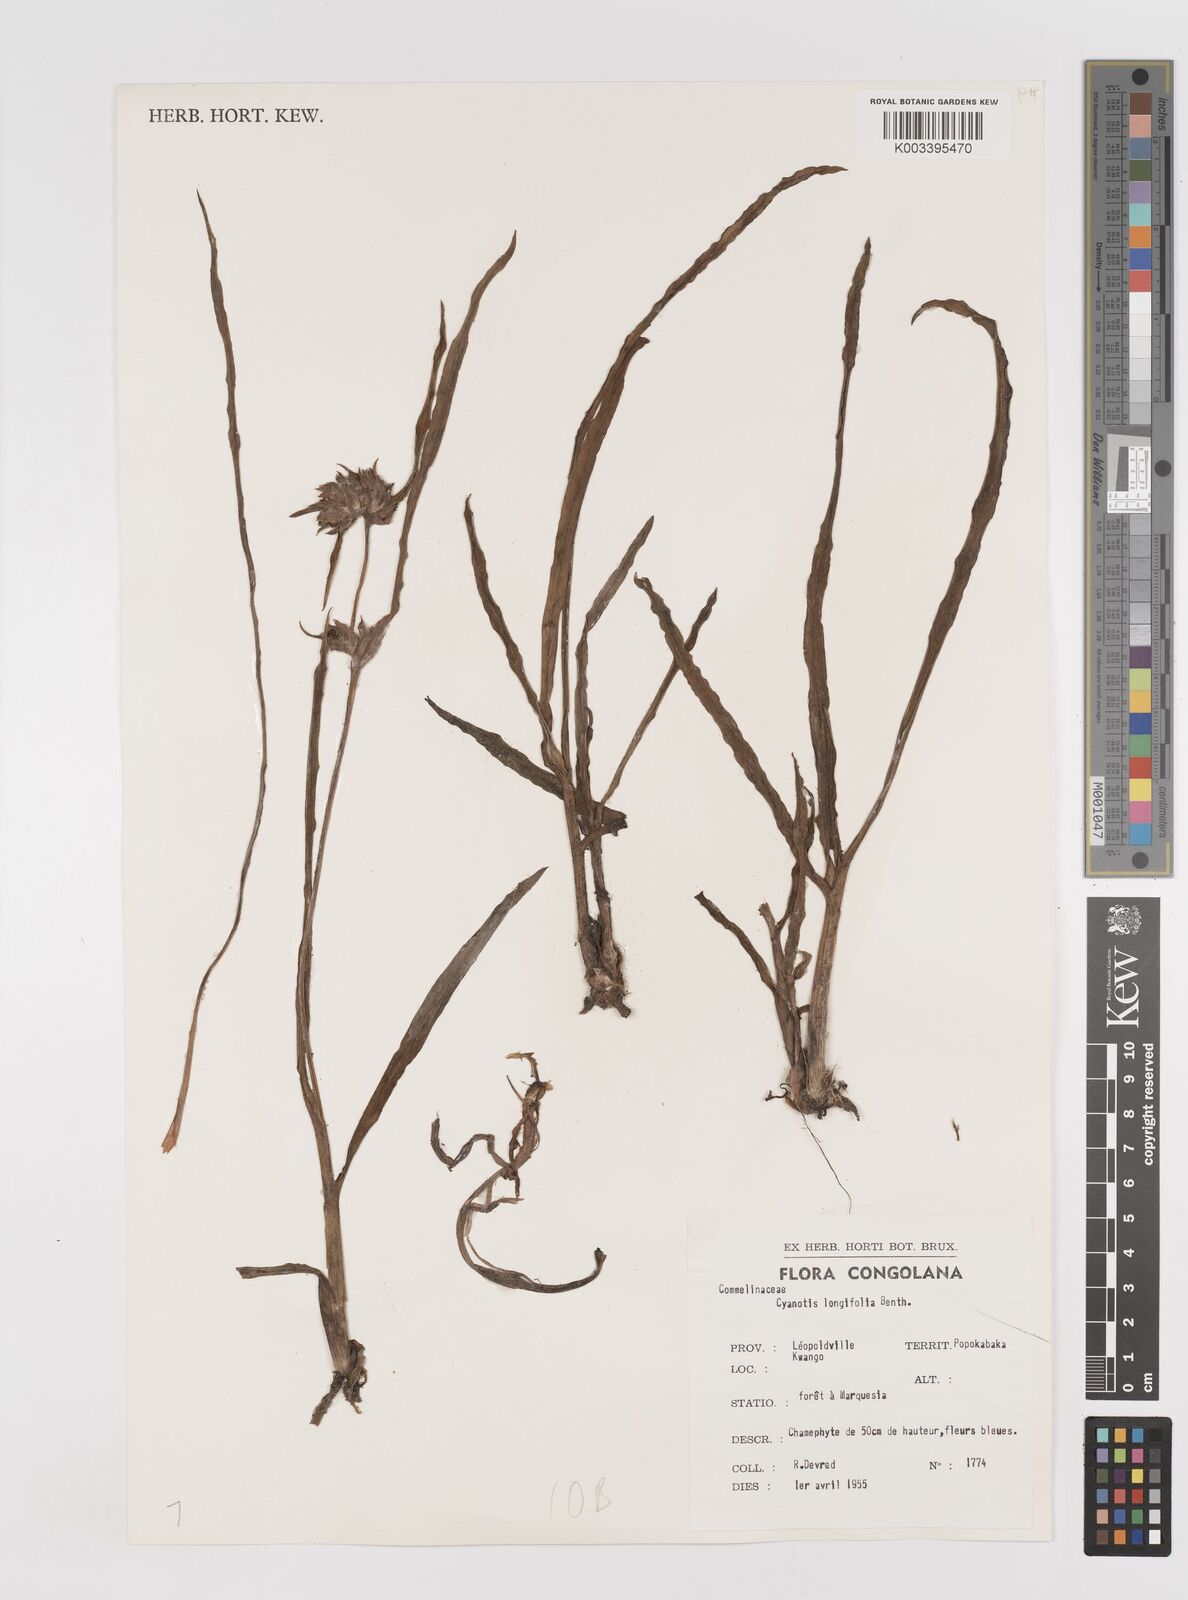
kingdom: Plantae
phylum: Tracheophyta
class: Liliopsida
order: Commelinales
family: Commelinaceae
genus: Cyanotis
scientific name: Cyanotis longifolia
